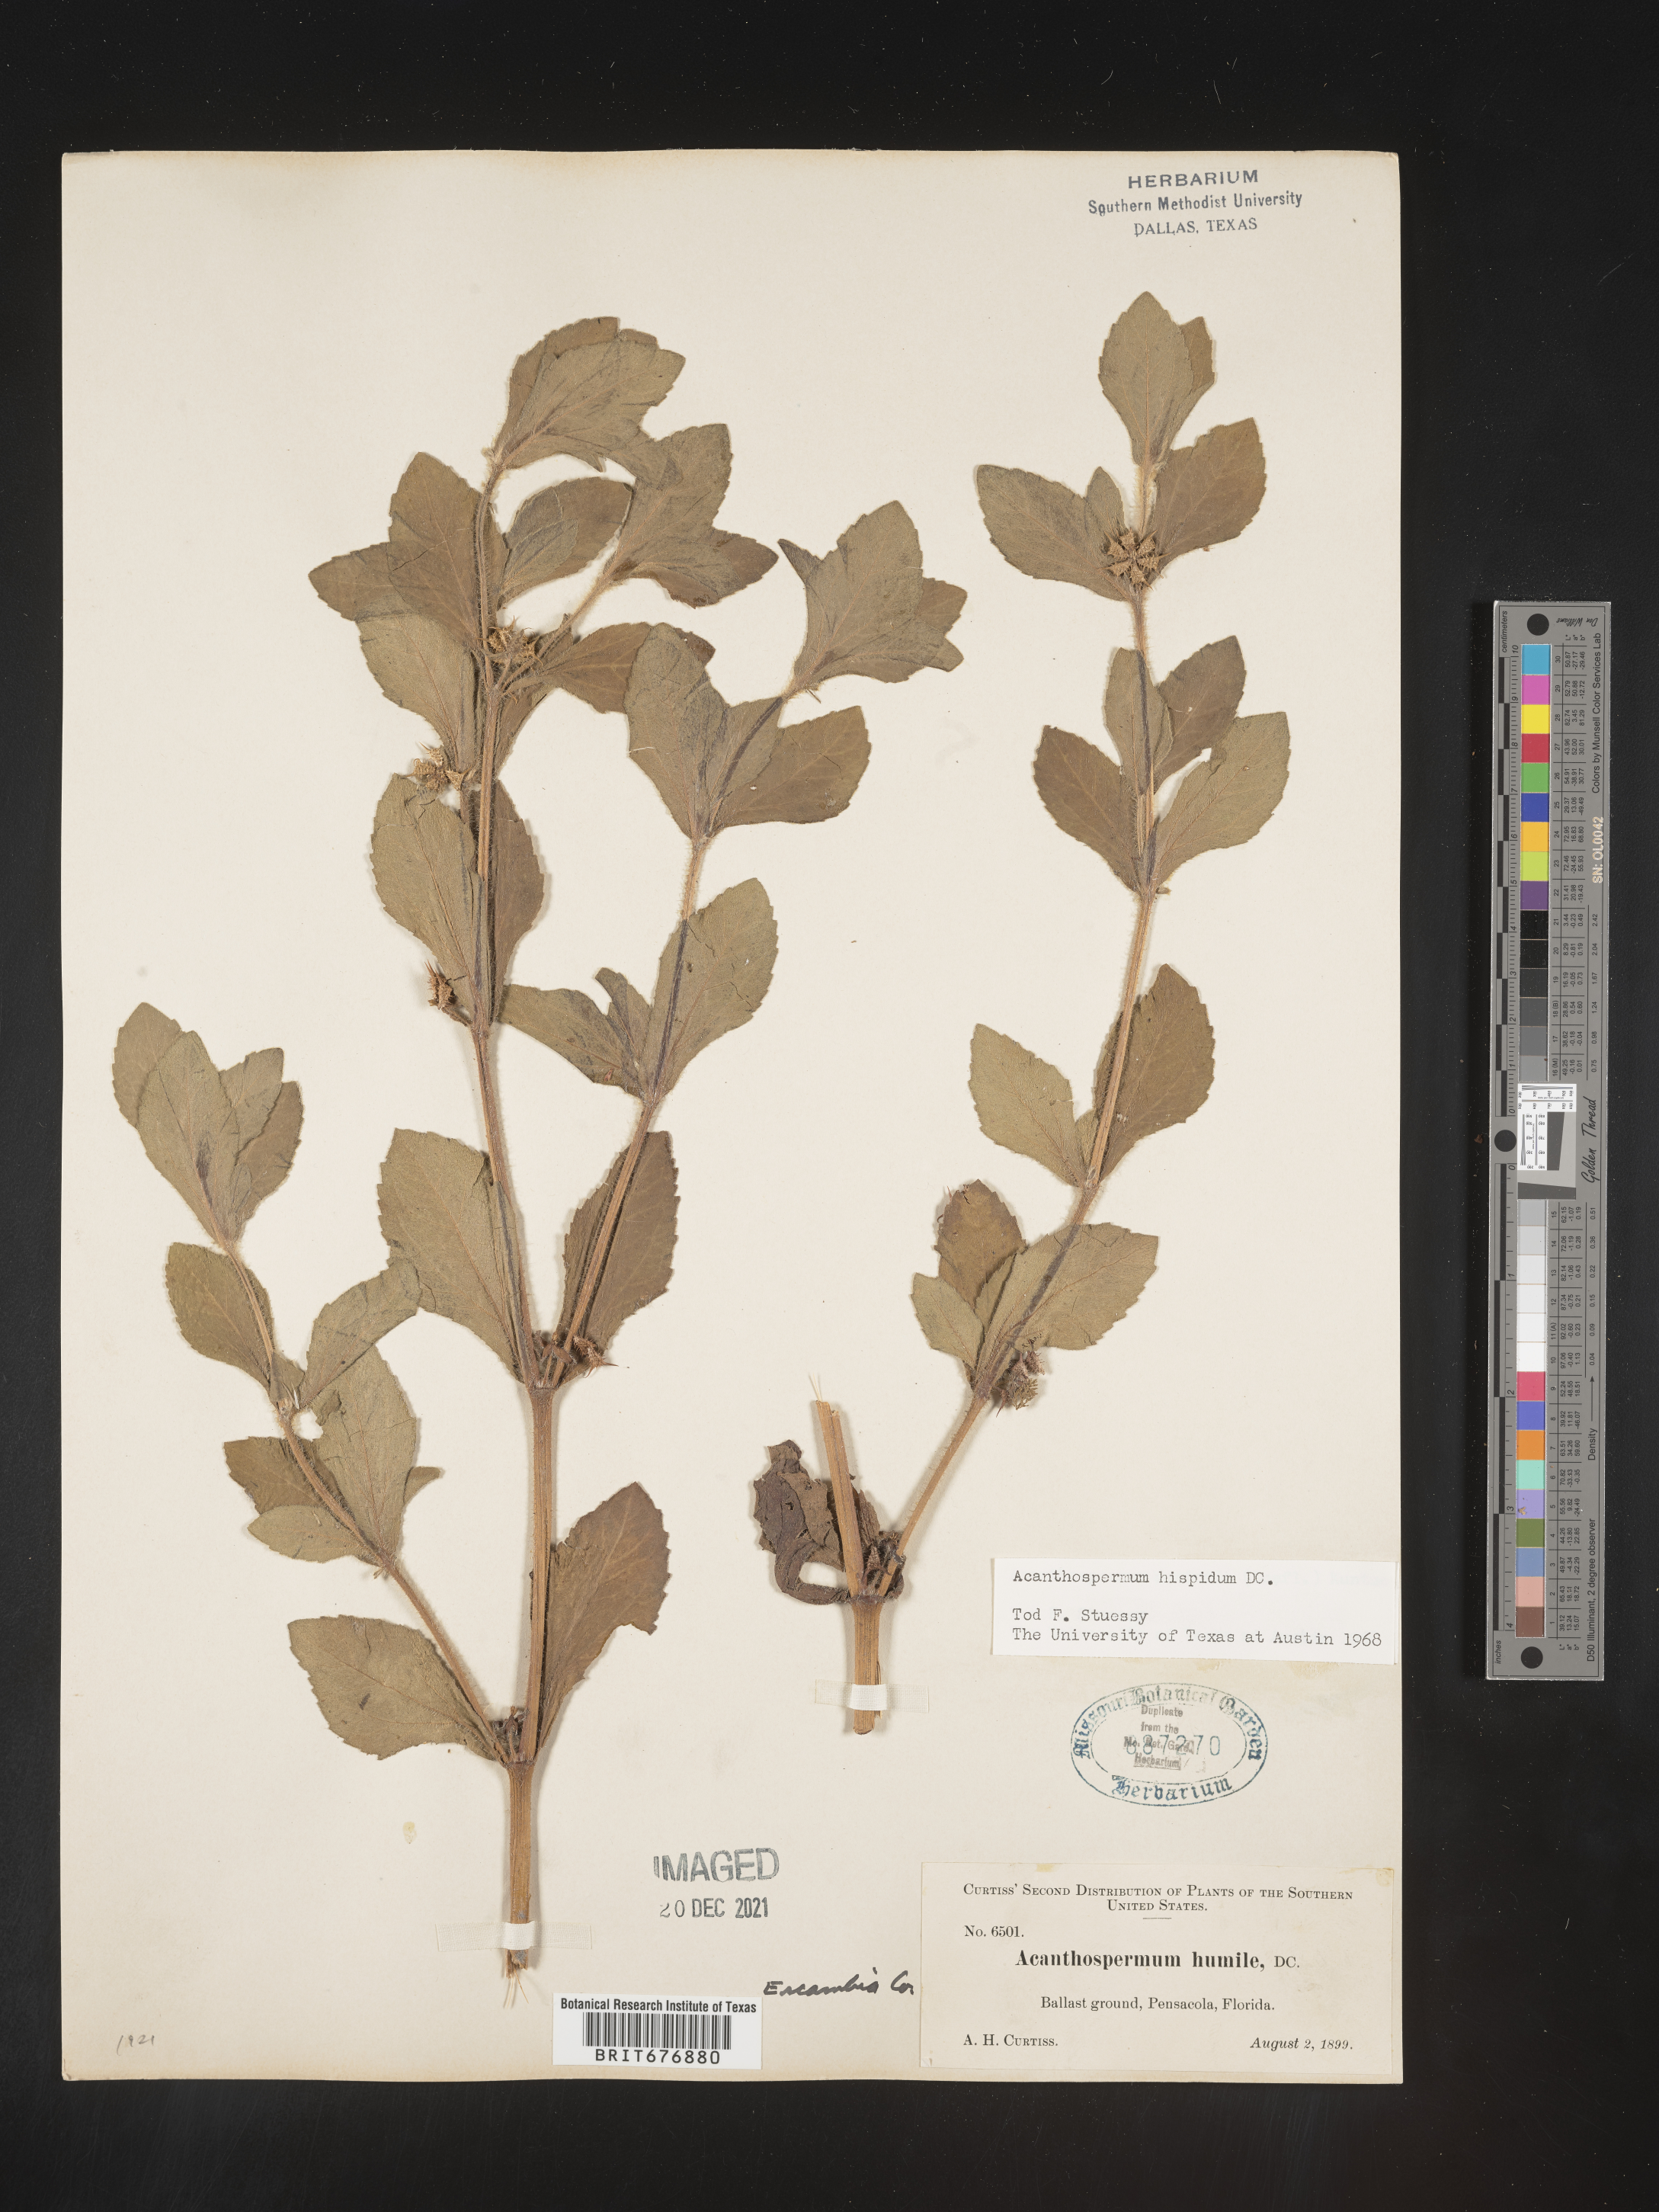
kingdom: Plantae
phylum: Tracheophyta
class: Magnoliopsida
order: Asterales
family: Asteraceae
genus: Acanthospermum
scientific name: Acanthospermum hispidum
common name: Hispid starbur
